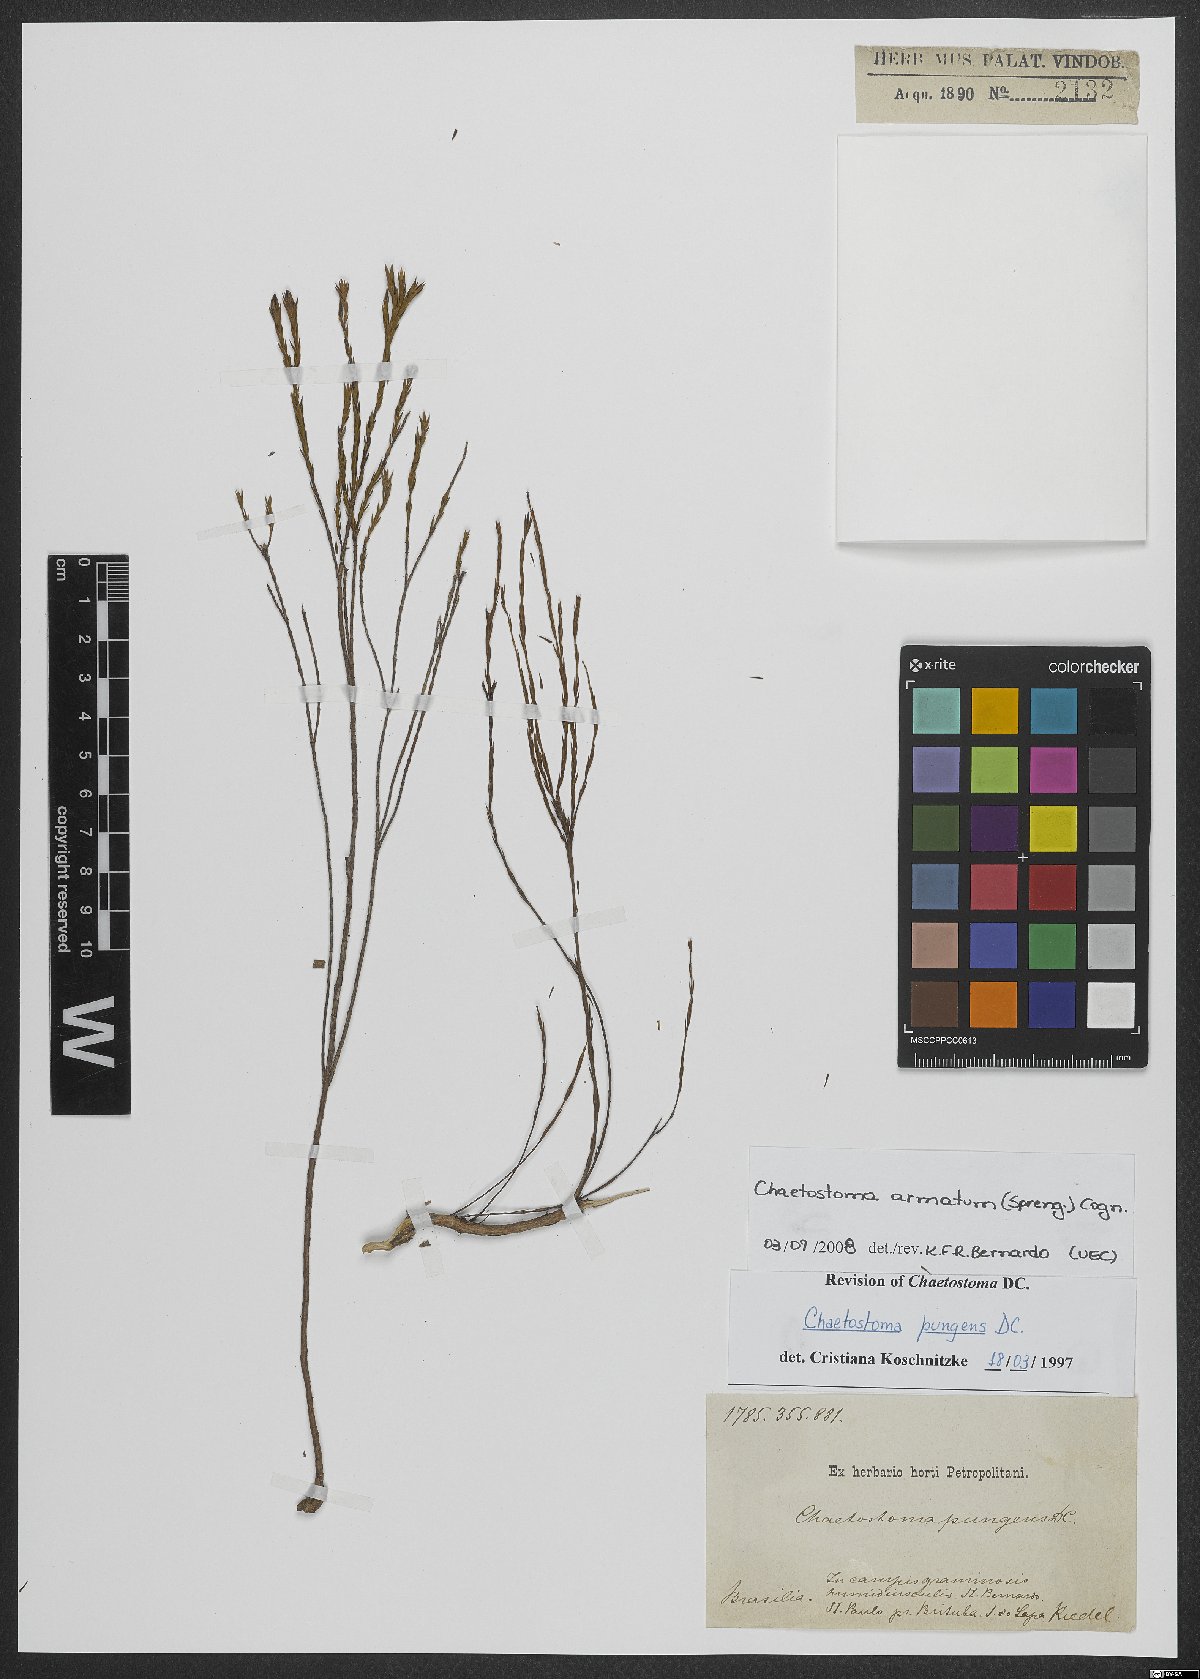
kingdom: Plantae
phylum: Tracheophyta
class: Magnoliopsida
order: Myrtales
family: Melastomataceae
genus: Microlicia
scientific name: Microlicia armata
